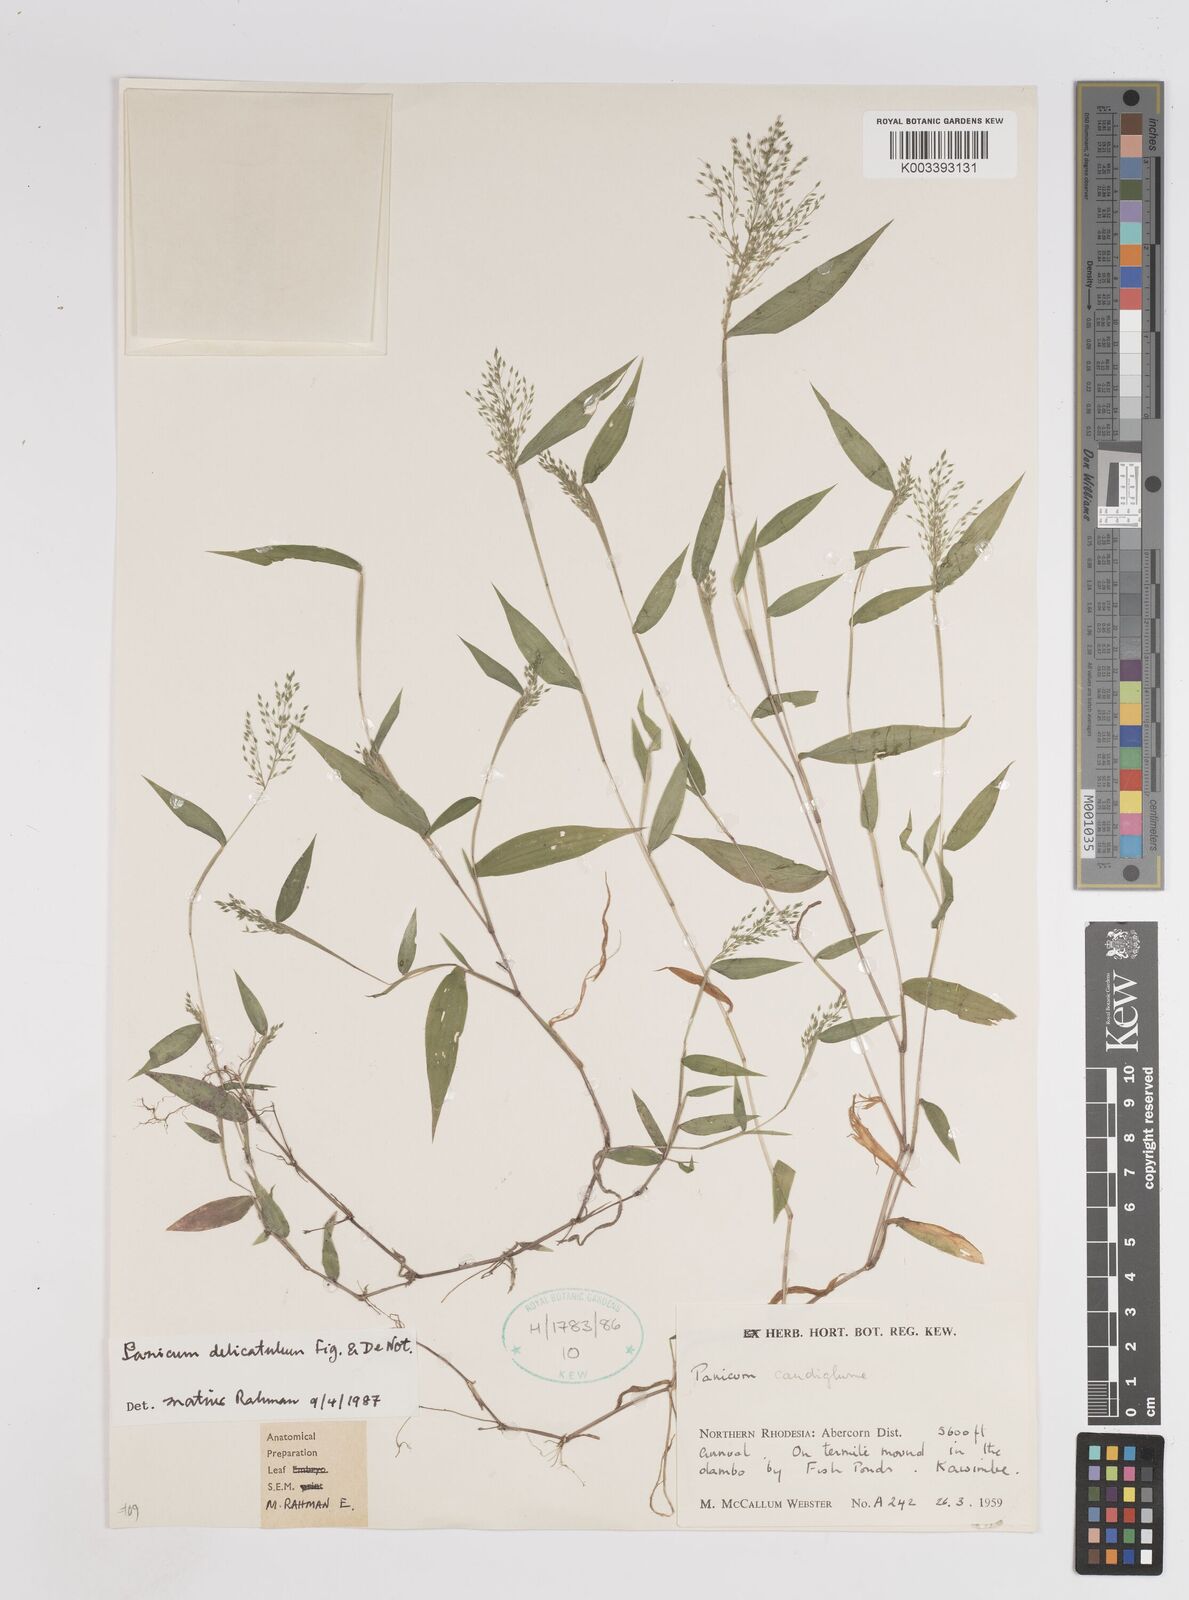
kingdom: Plantae
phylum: Tracheophyta
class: Liliopsida
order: Poales
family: Poaceae
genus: Panicum
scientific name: Panicum delicatulum
